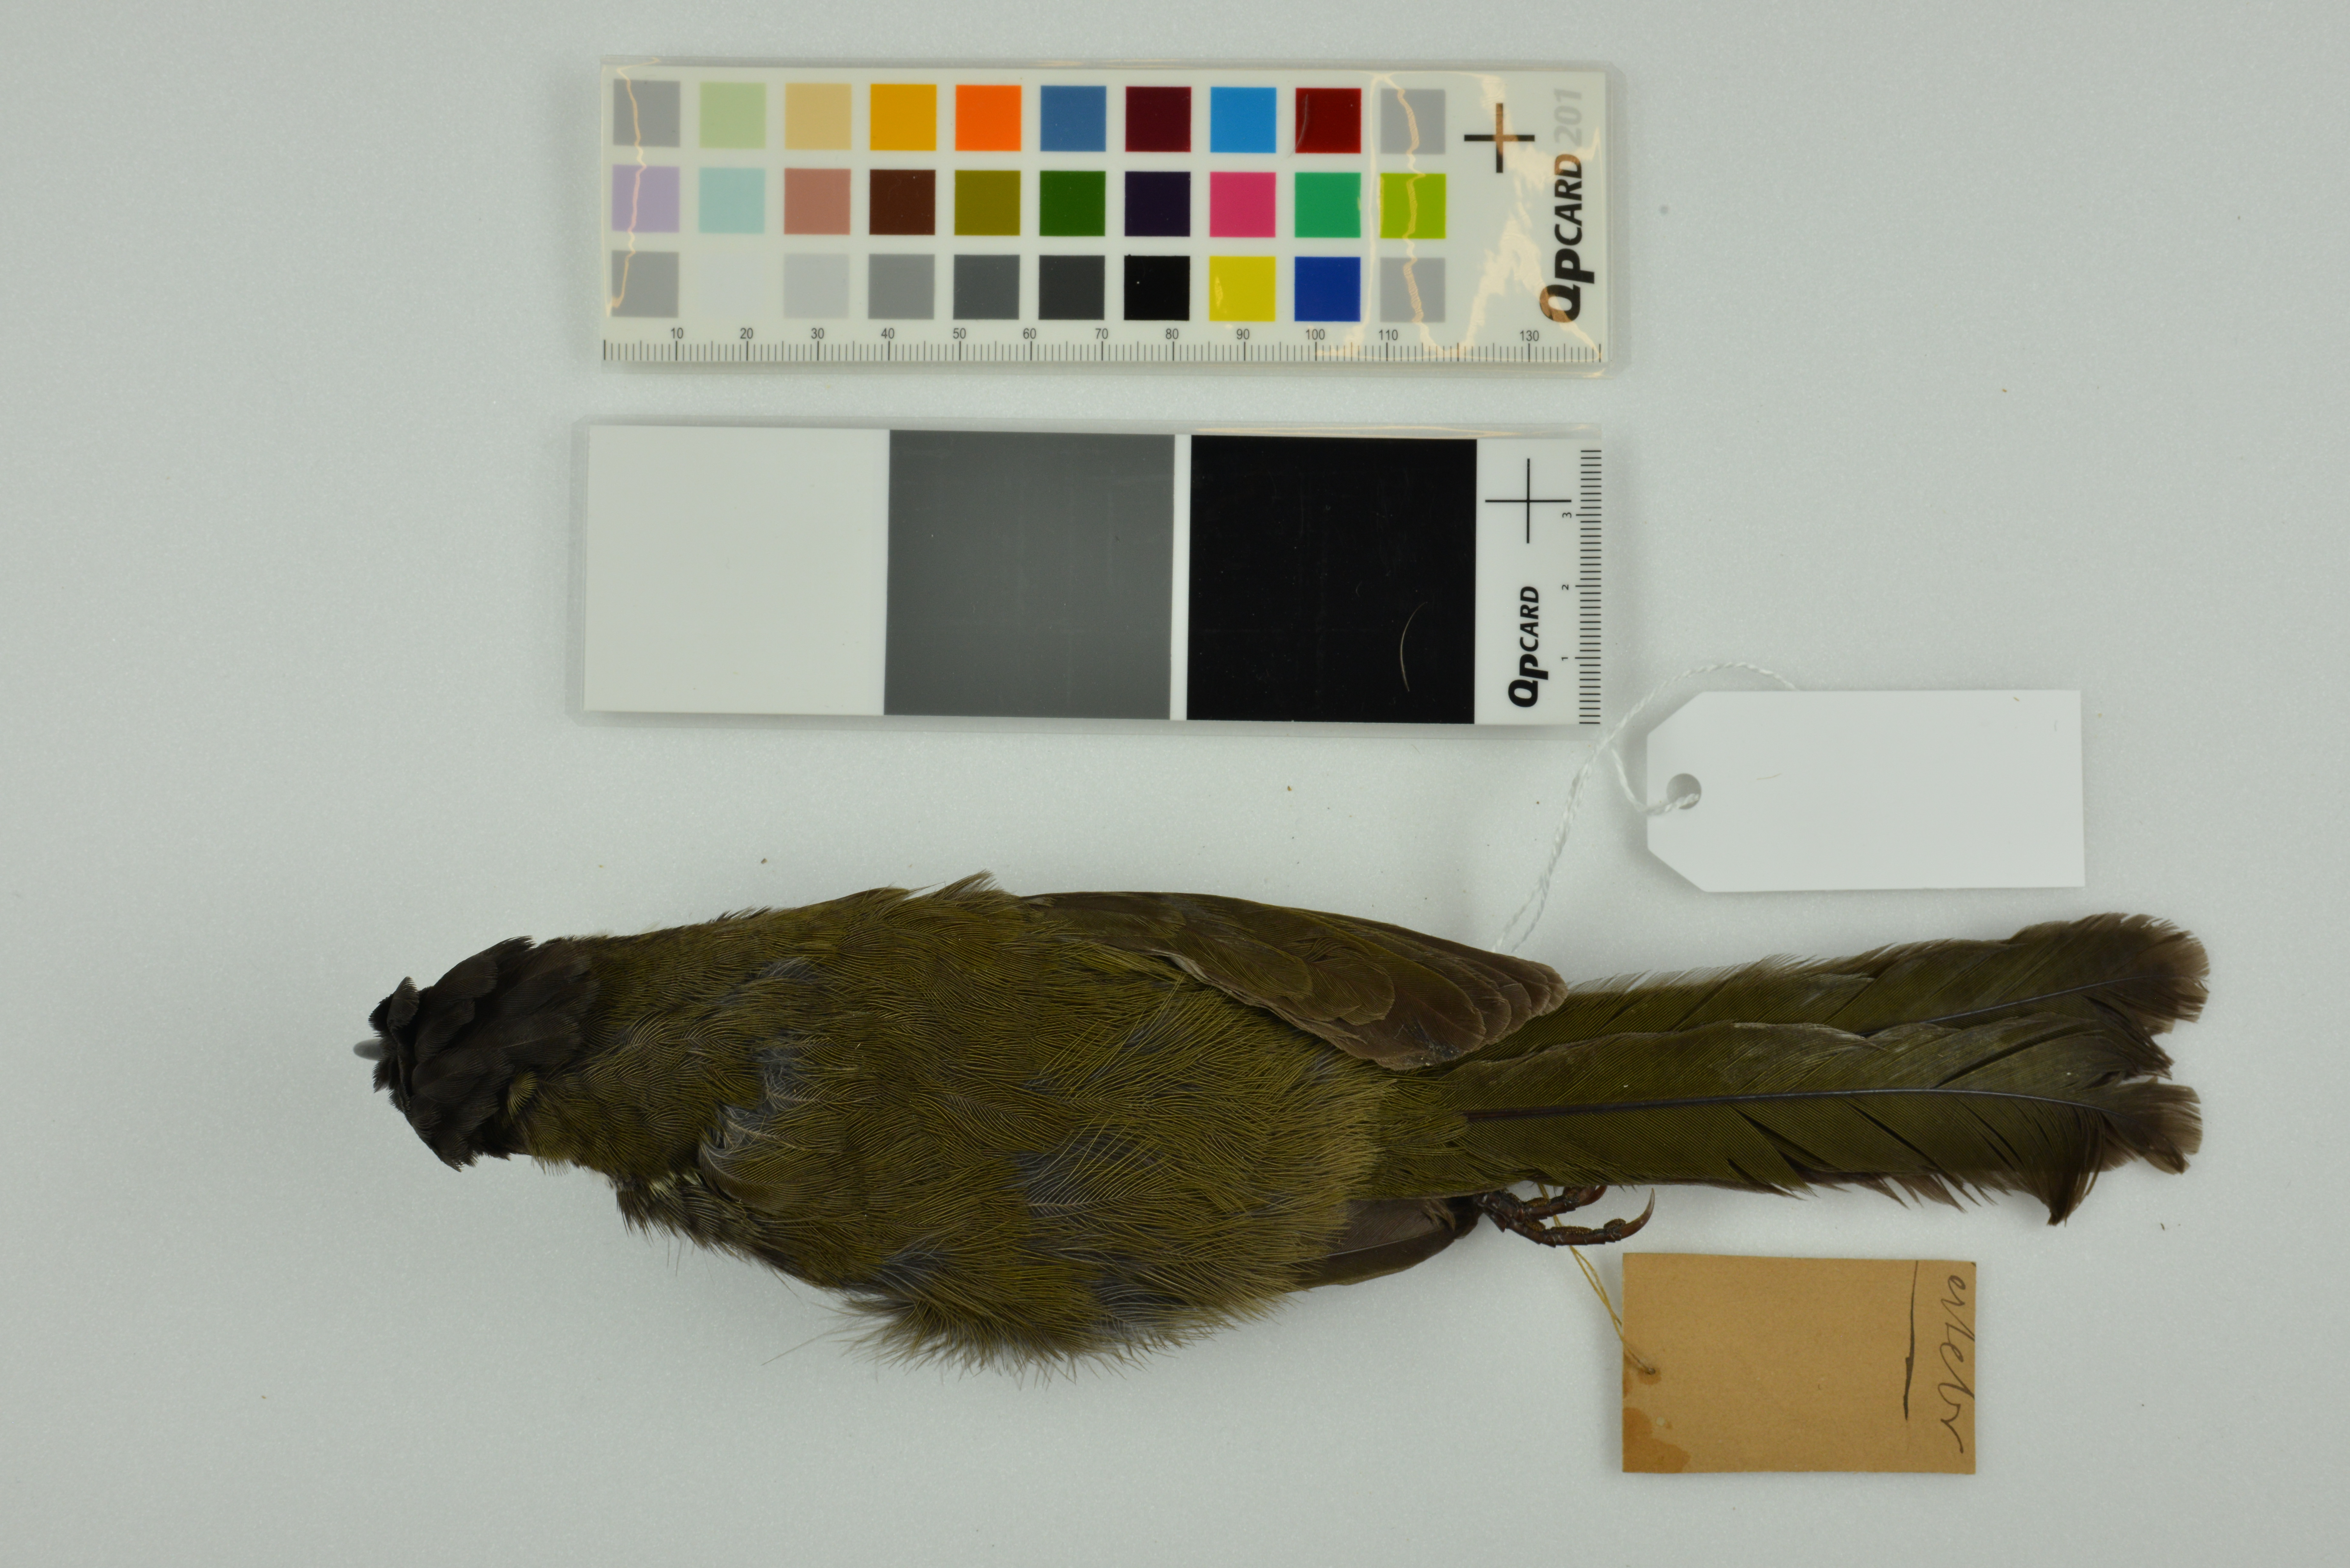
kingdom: Animalia
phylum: Chordata
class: Aves
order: Passeriformes
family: Psophodidae
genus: Psophodes
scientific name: Psophodes olivaceus
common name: Eastern whipbird
